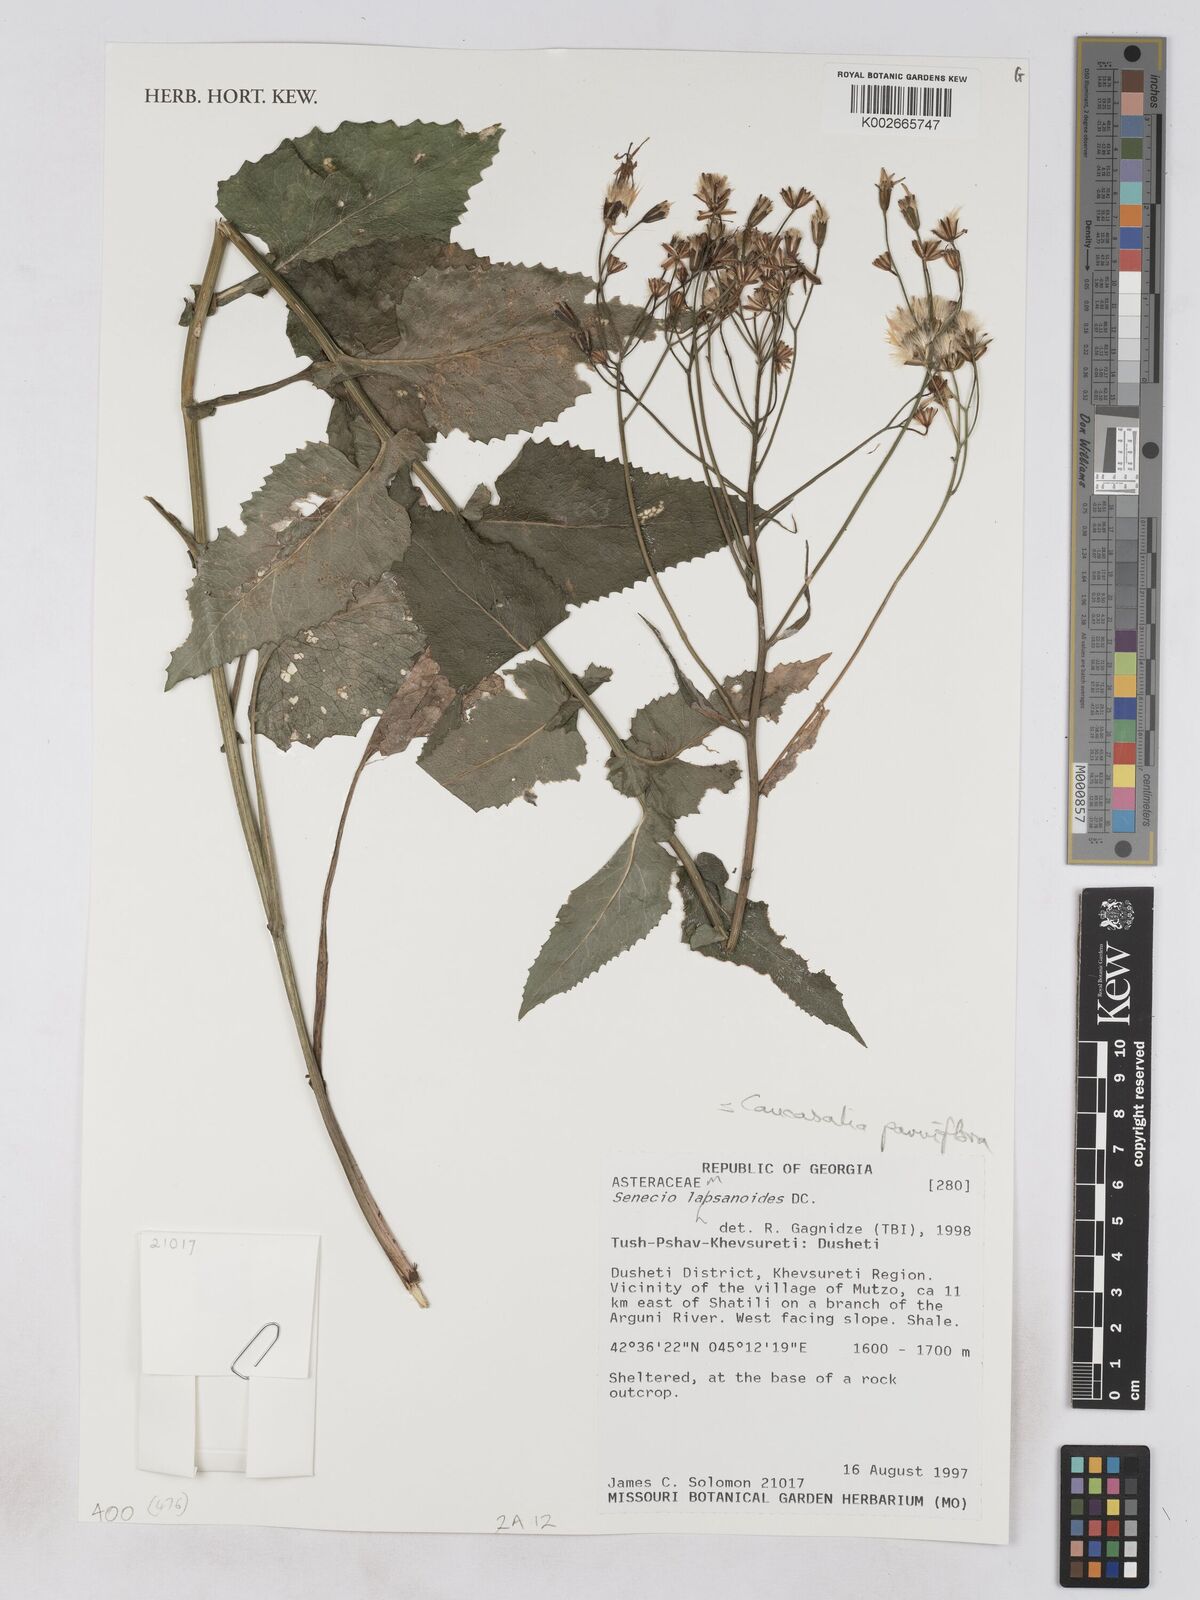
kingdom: Plantae
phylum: Tracheophyta
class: Magnoliopsida
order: Asterales
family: Asteraceae
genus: Caucasalia
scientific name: Caucasalia parviflora
